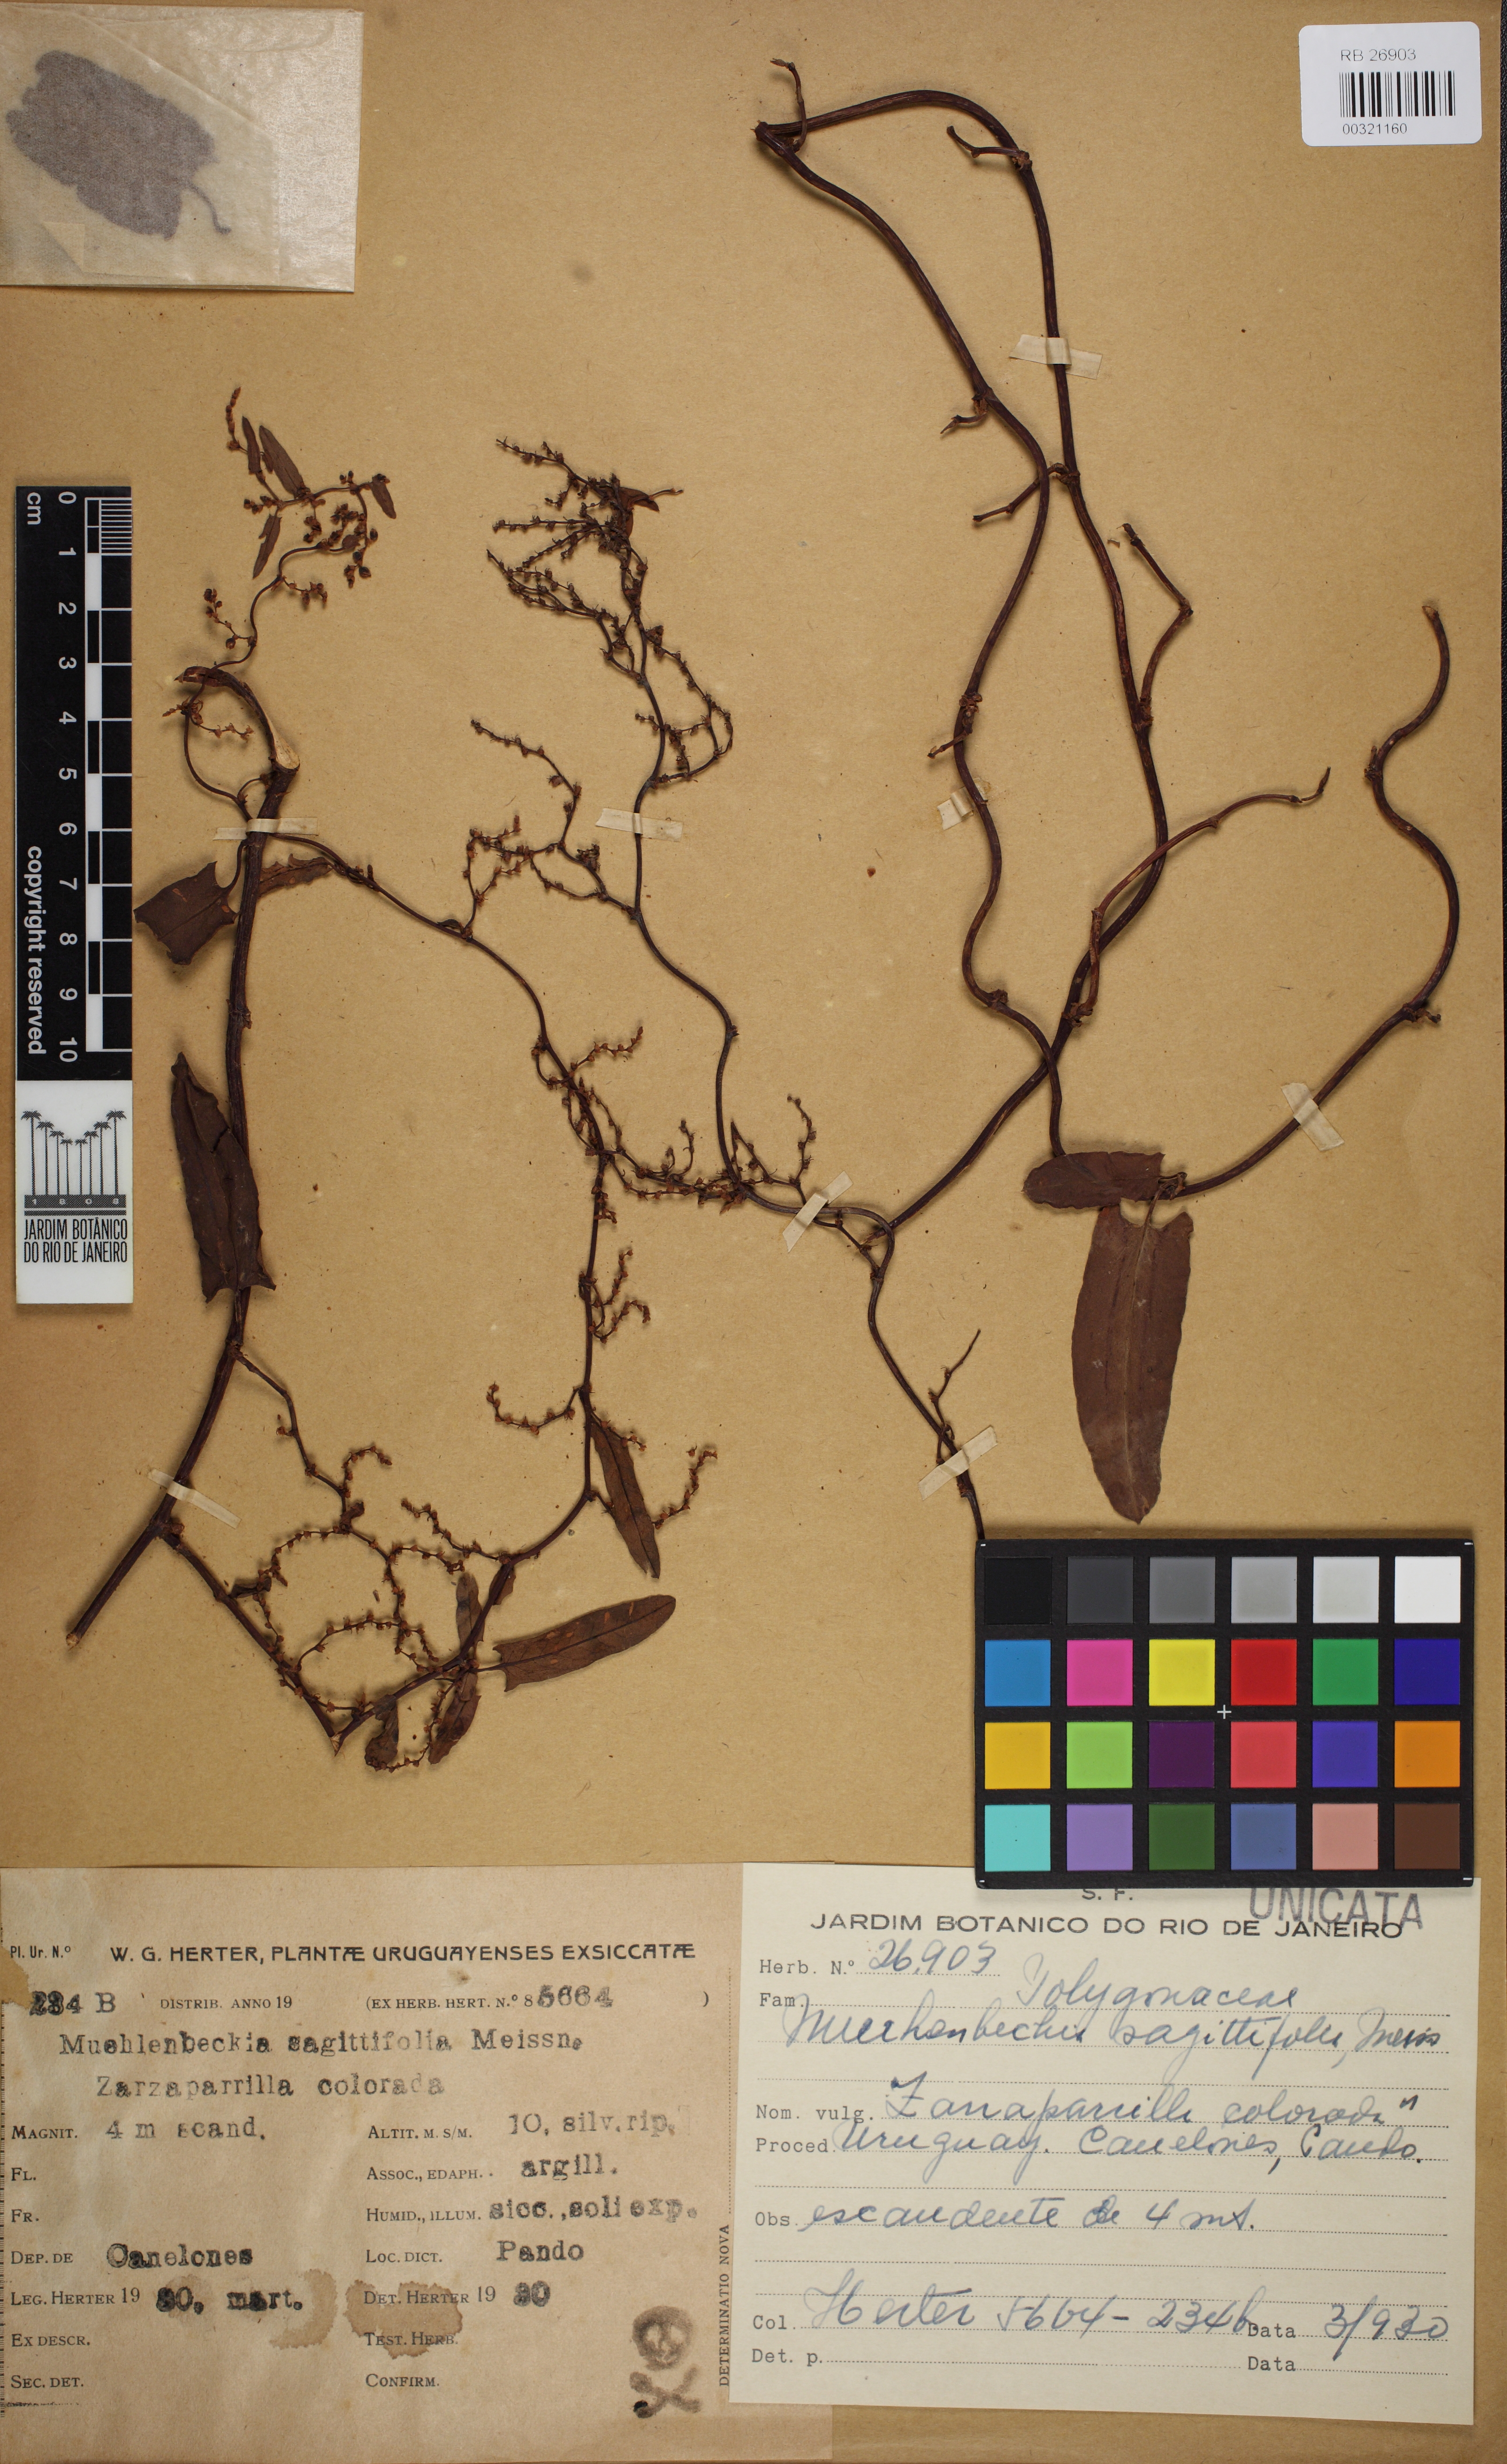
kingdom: Plantae
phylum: Tracheophyta
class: Magnoliopsida
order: Caryophyllales
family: Polygonaceae
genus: Muehlenbeckia
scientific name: Muehlenbeckia sagittifolia
